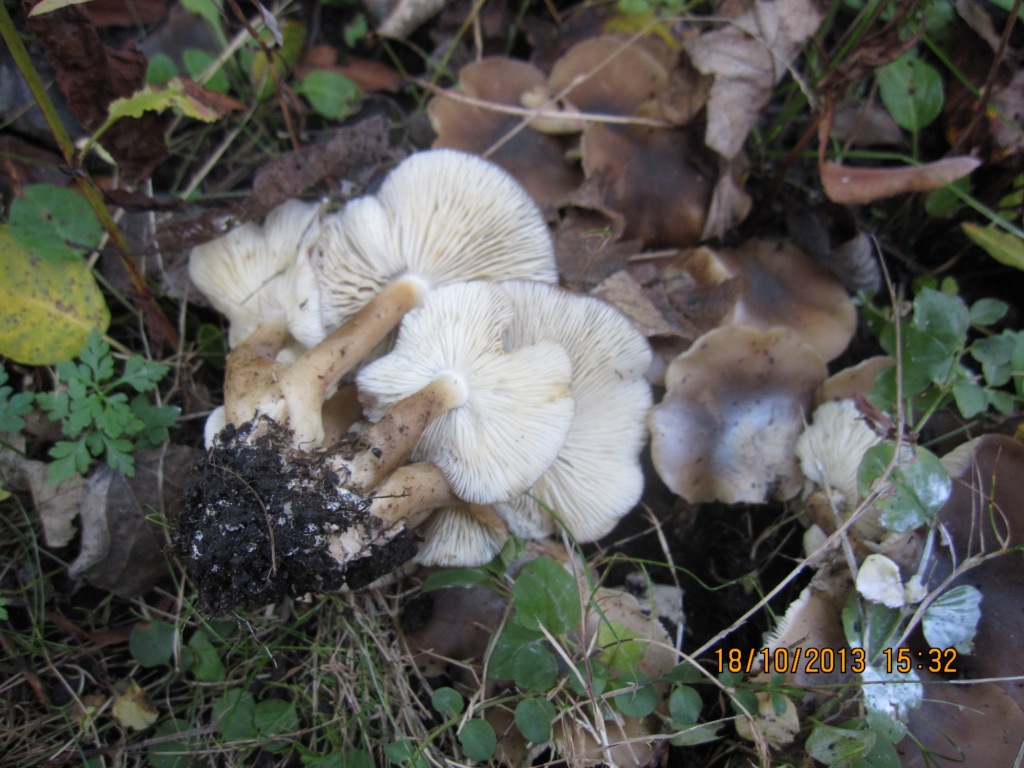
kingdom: Fungi
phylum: Basidiomycota
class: Agaricomycetes
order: Agaricales
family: Lyophyllaceae
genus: Lyophyllum
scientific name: Lyophyllum decastes
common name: Clustered domecap
